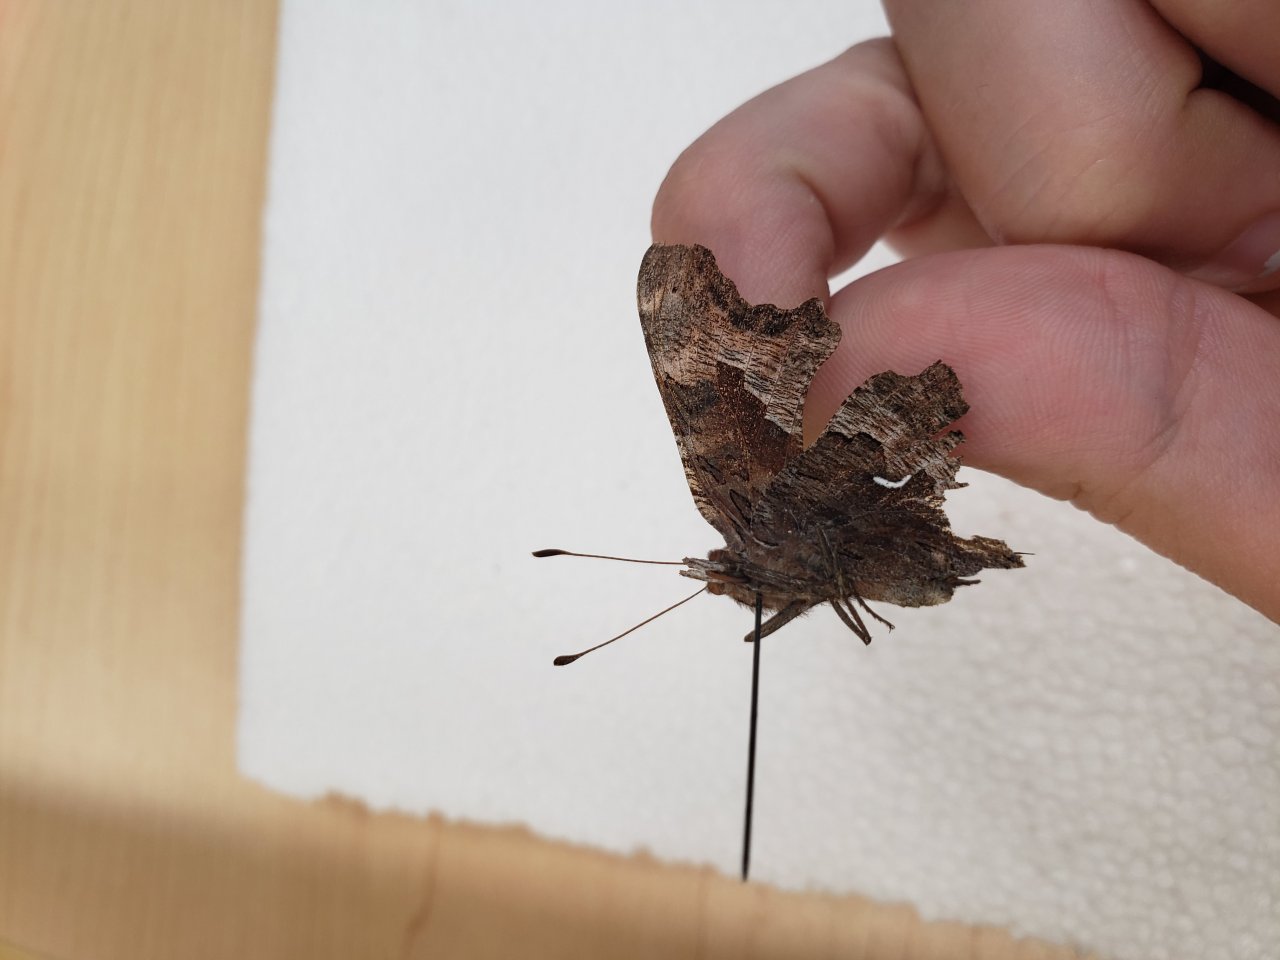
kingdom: Animalia
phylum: Arthropoda
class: Insecta
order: Lepidoptera
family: Nymphalidae
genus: Polygonia
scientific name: Polygonia gracilis
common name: Hoary Comma
